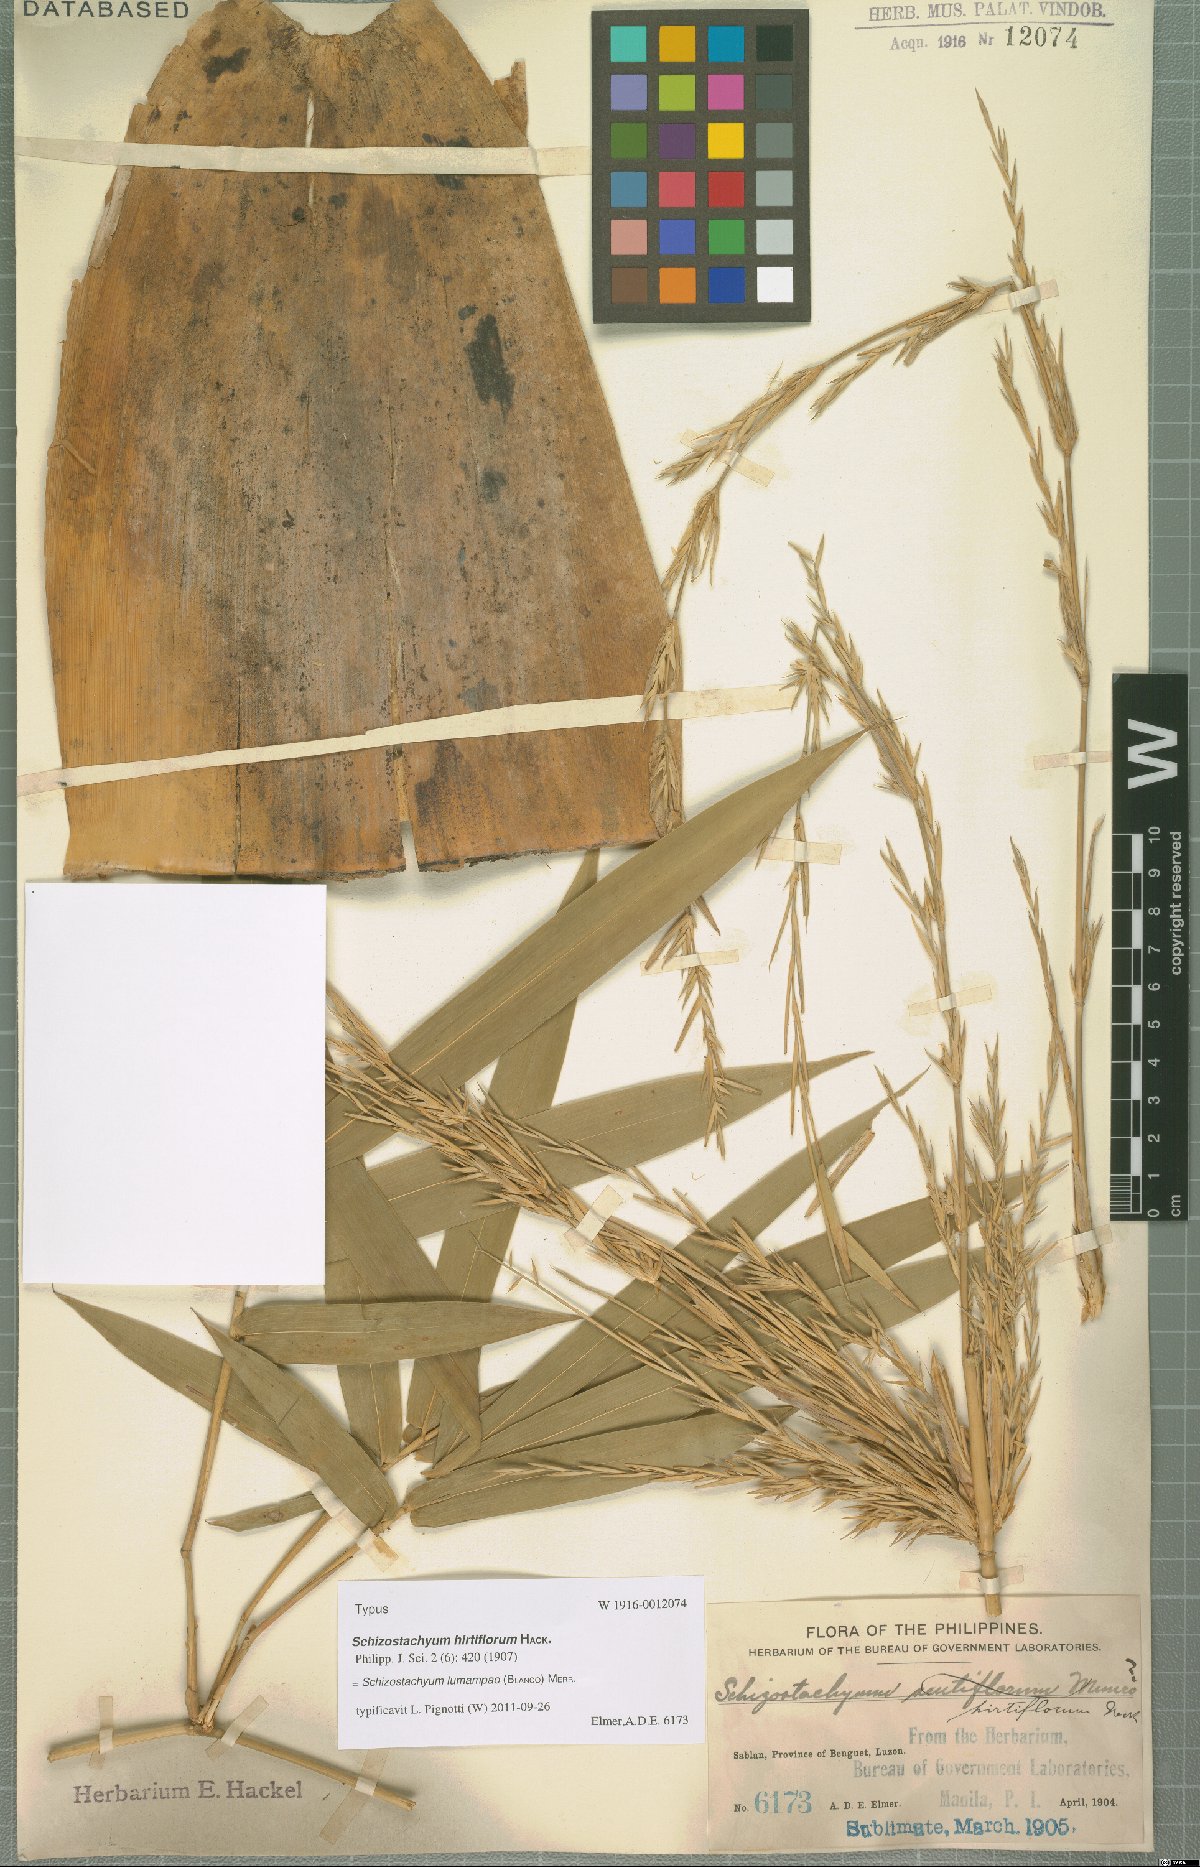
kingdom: Plantae
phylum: Tracheophyta
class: Liliopsida
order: Poales
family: Poaceae
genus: Schizostachyum
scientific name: Schizostachyum lumampao
